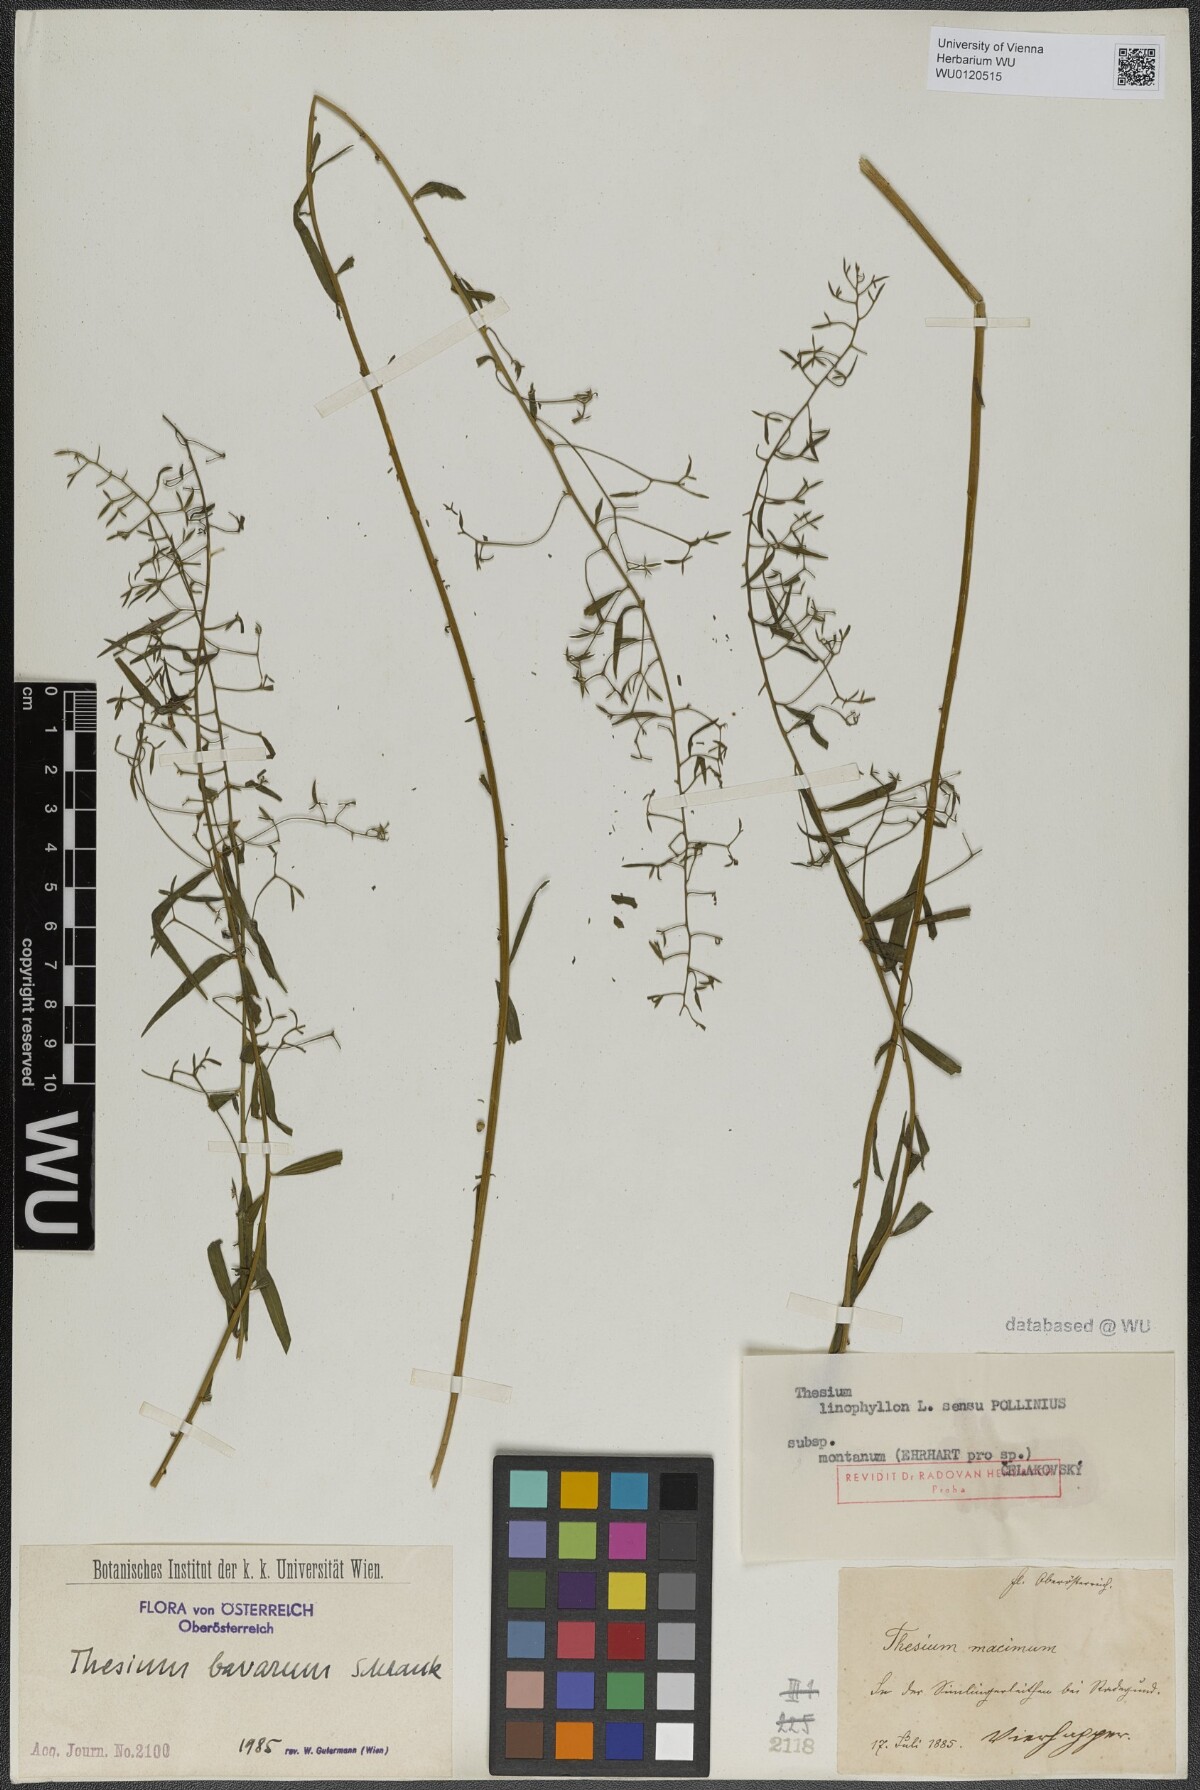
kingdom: Plantae
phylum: Tracheophyta
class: Magnoliopsida
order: Santalales
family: Thesiaceae
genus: Thesium
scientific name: Thesium bavarum
